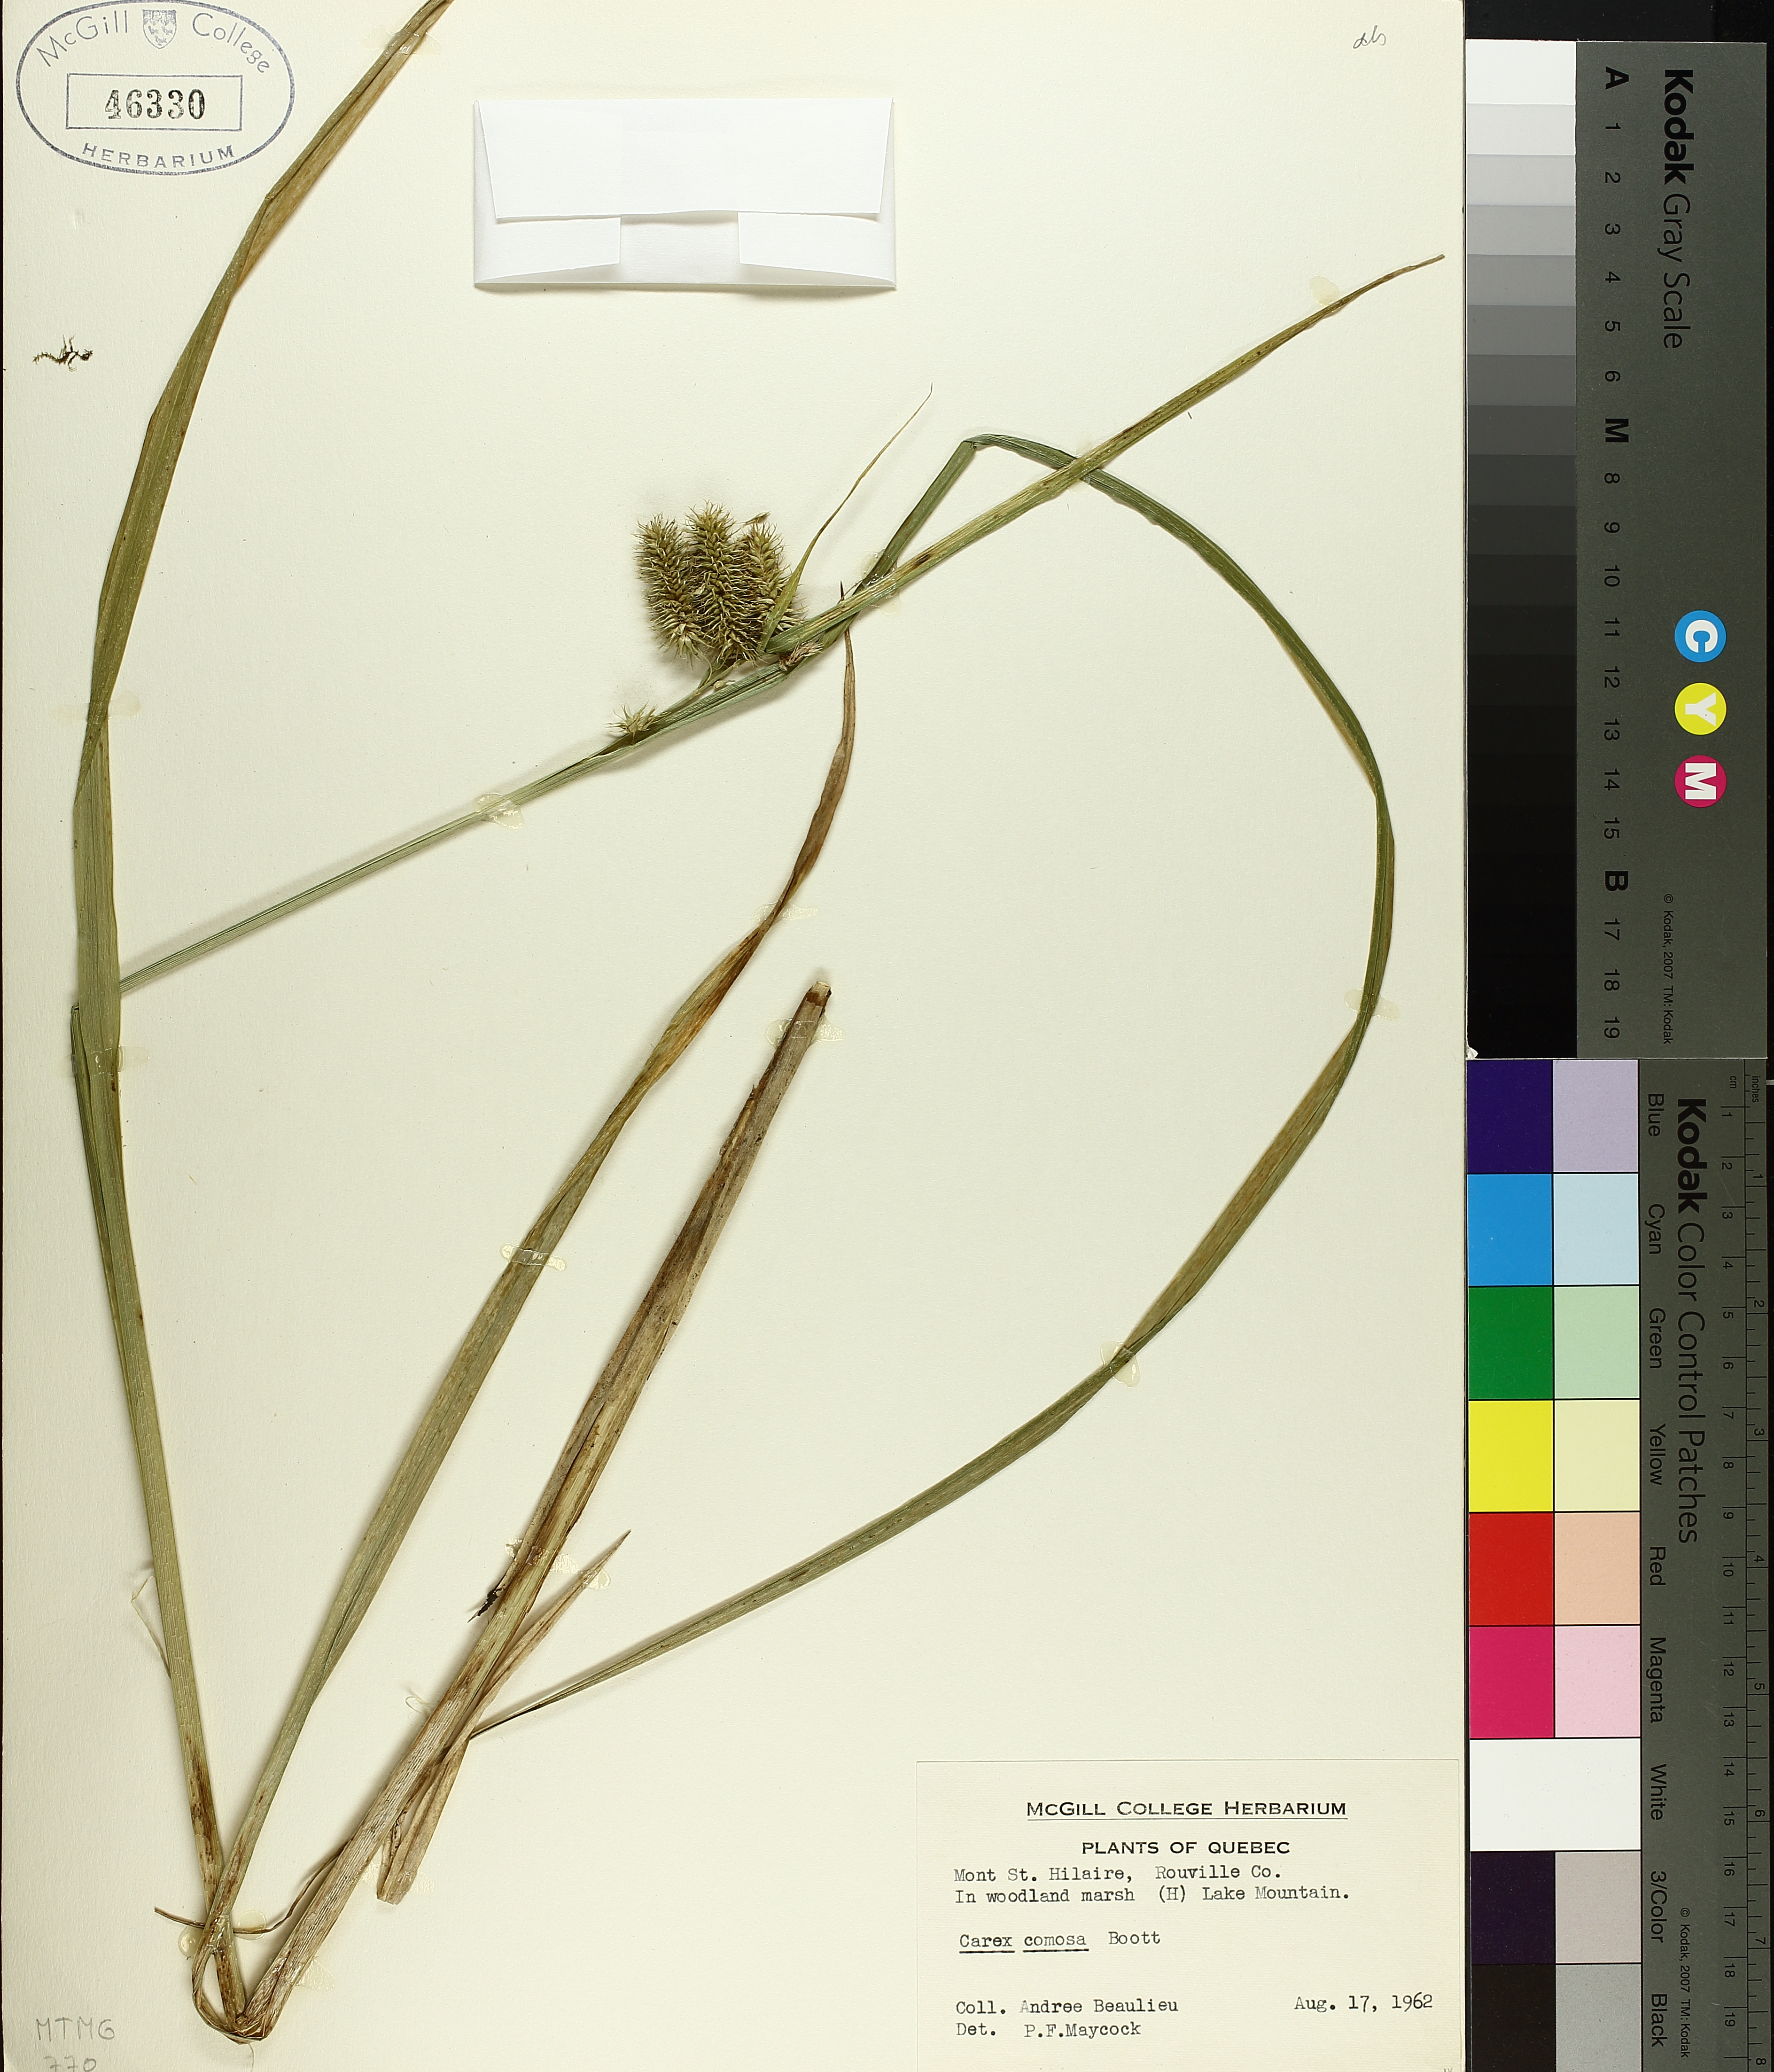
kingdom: Plantae
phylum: Tracheophyta
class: Liliopsida
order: Poales
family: Cyperaceae
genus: Carex
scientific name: Carex comosa
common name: Bristly sedge
